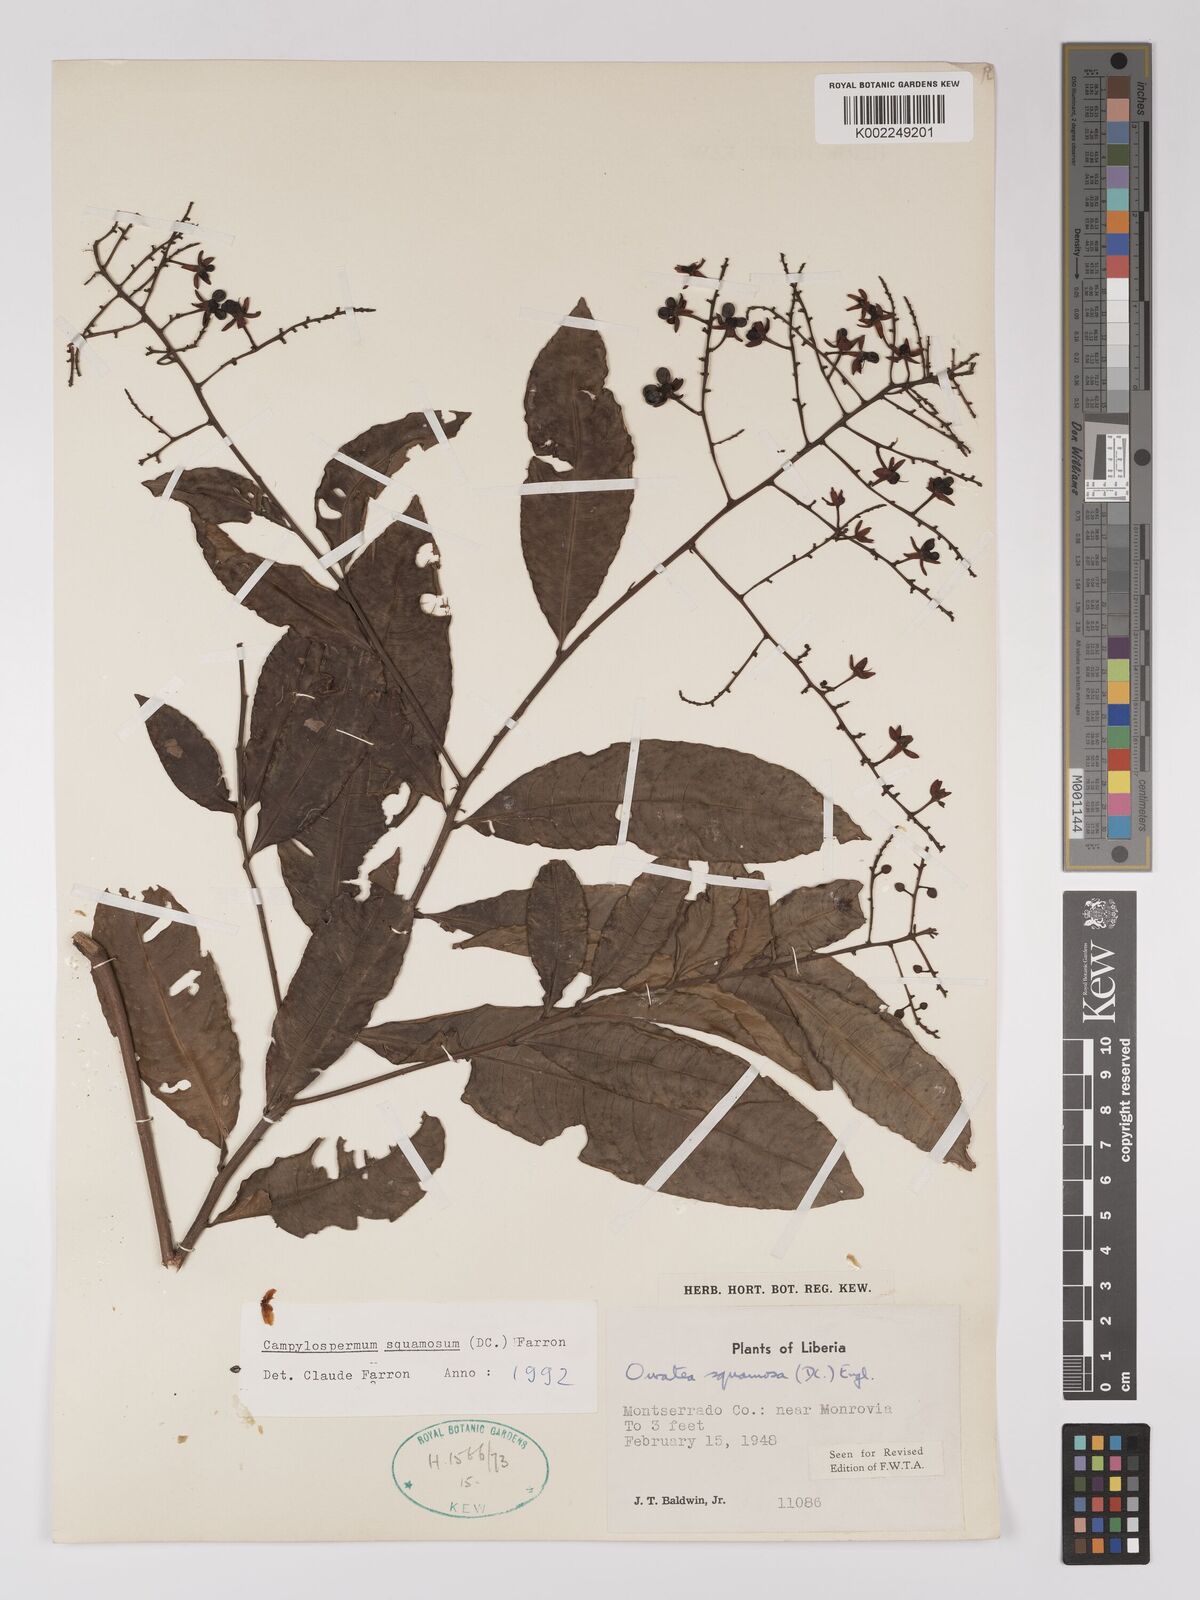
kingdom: Plantae
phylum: Tracheophyta
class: Magnoliopsida
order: Malpighiales
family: Ochnaceae
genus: Campylospermum
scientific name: Campylospermum squamosum
